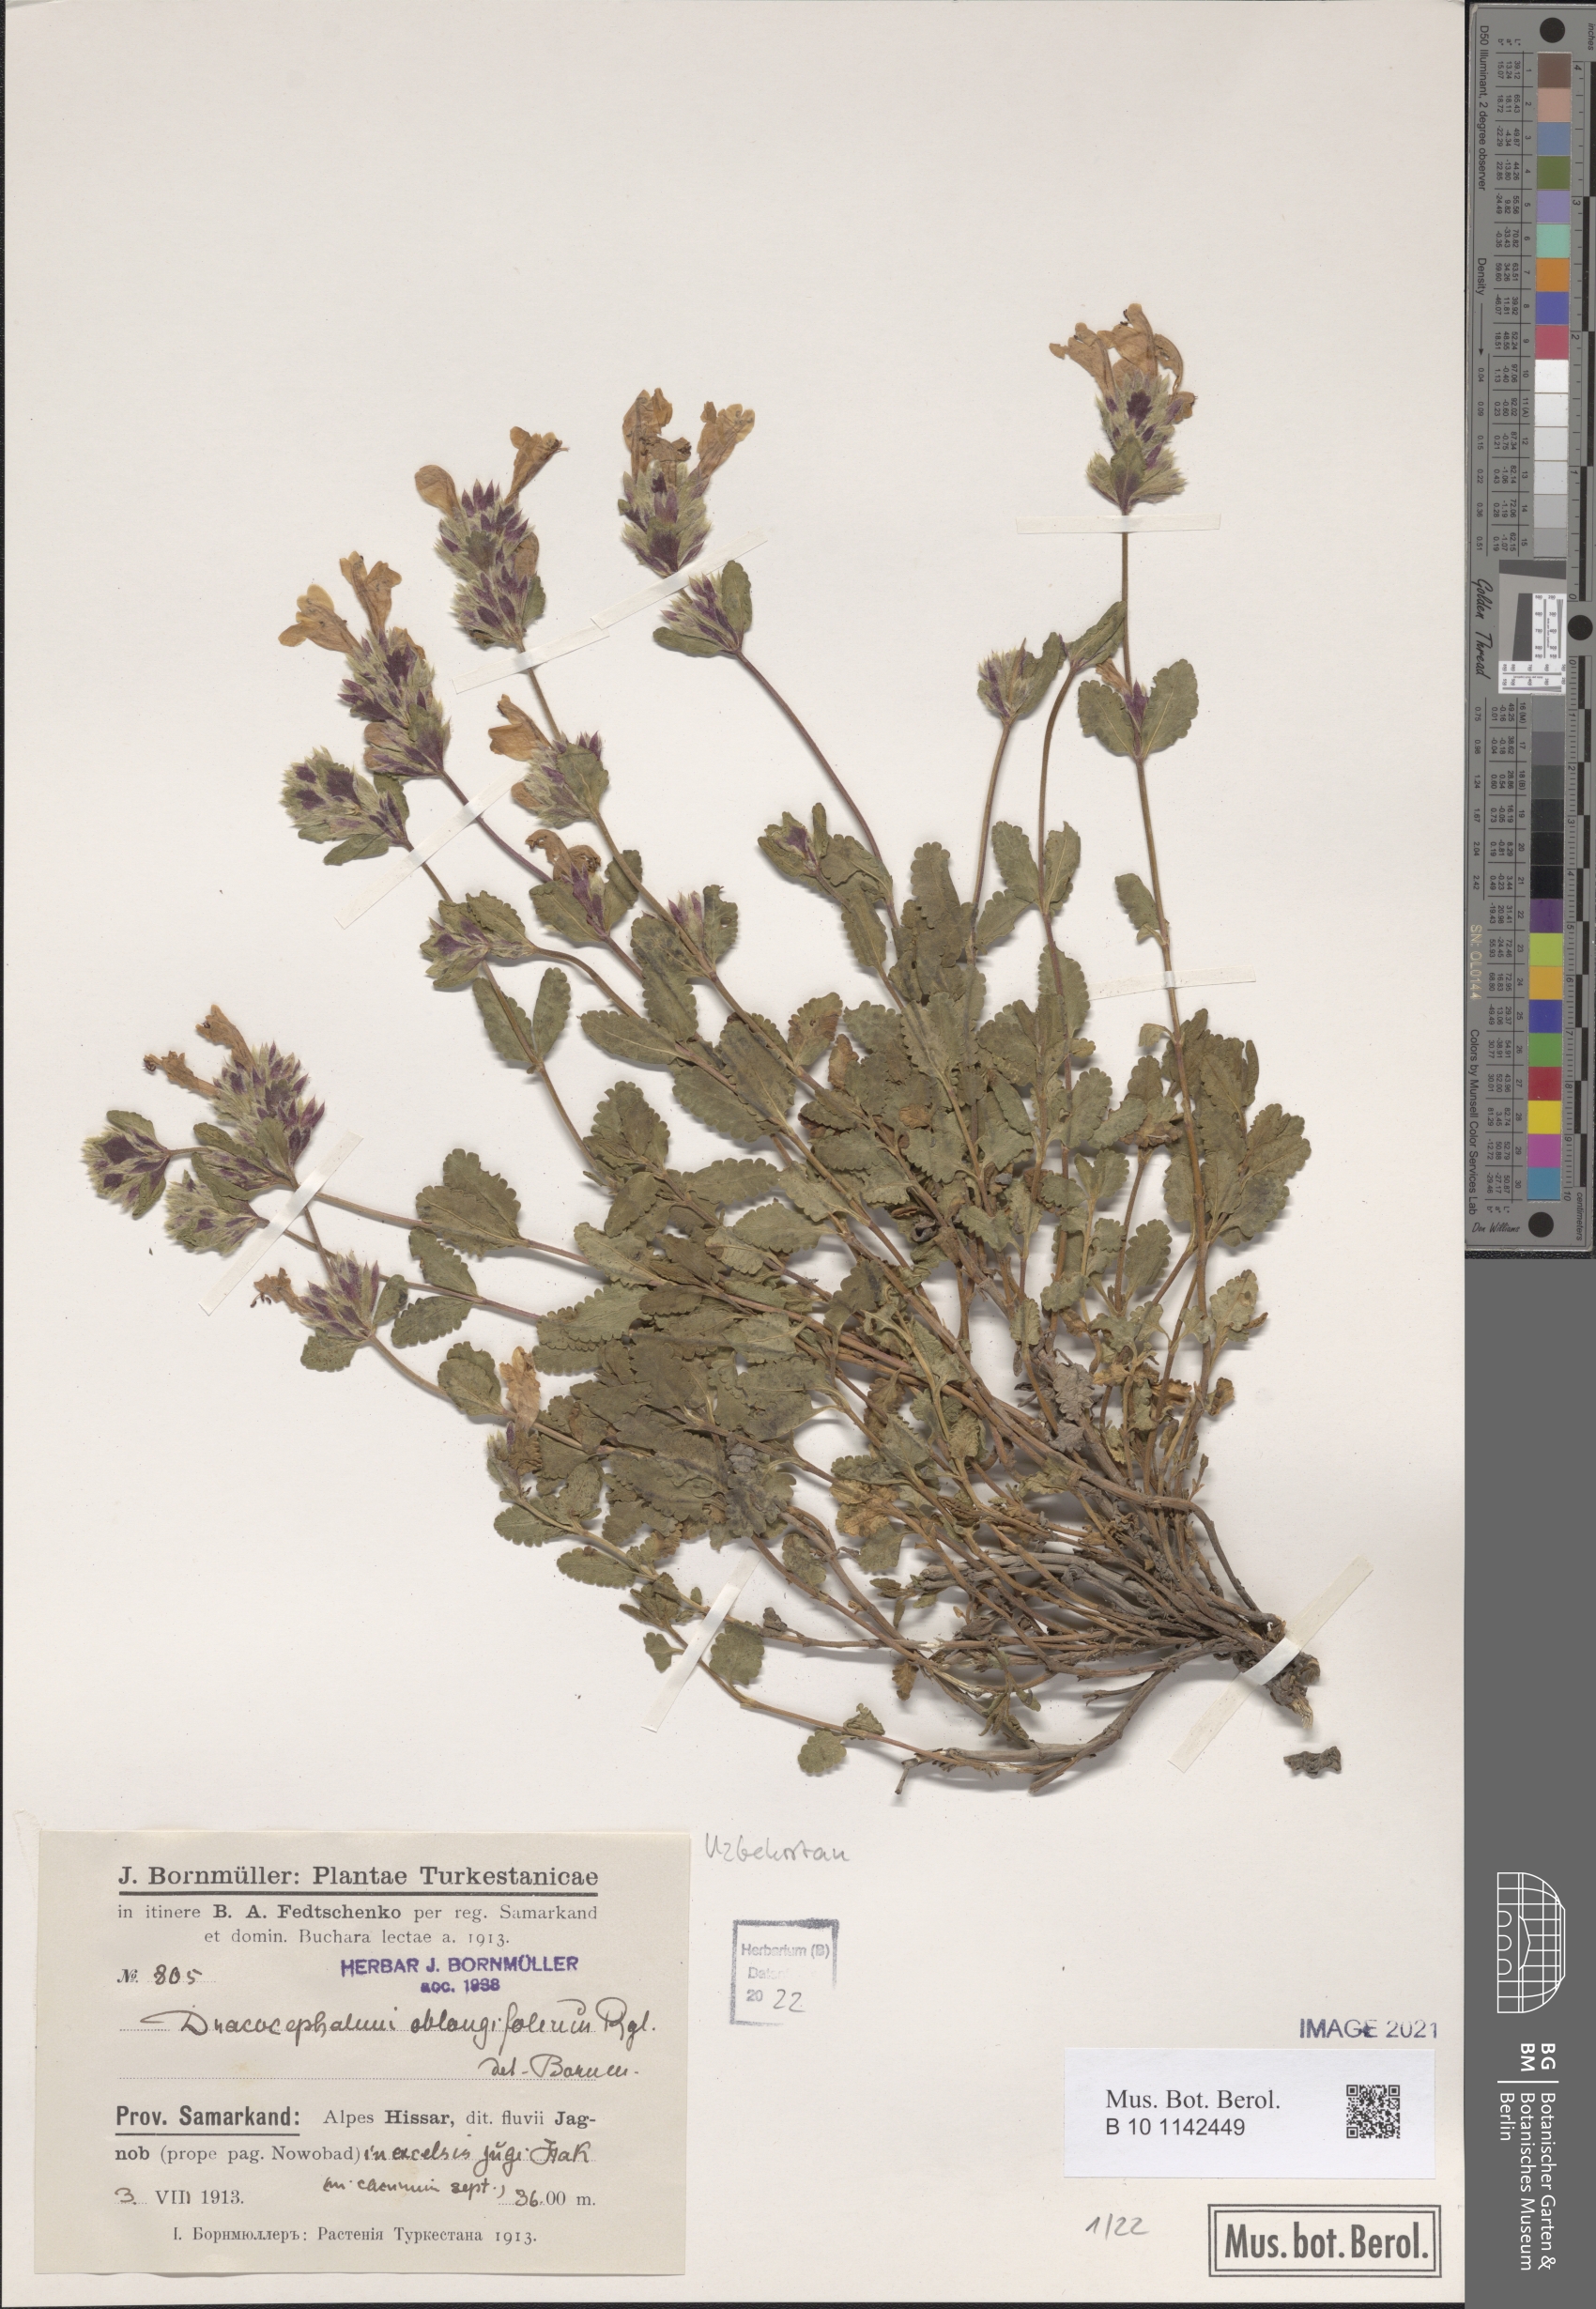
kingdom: Plantae
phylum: Tracheophyta
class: Magnoliopsida
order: Lamiales
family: Lamiaceae
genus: Dracocephalum
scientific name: Dracocephalum oblongifolium
